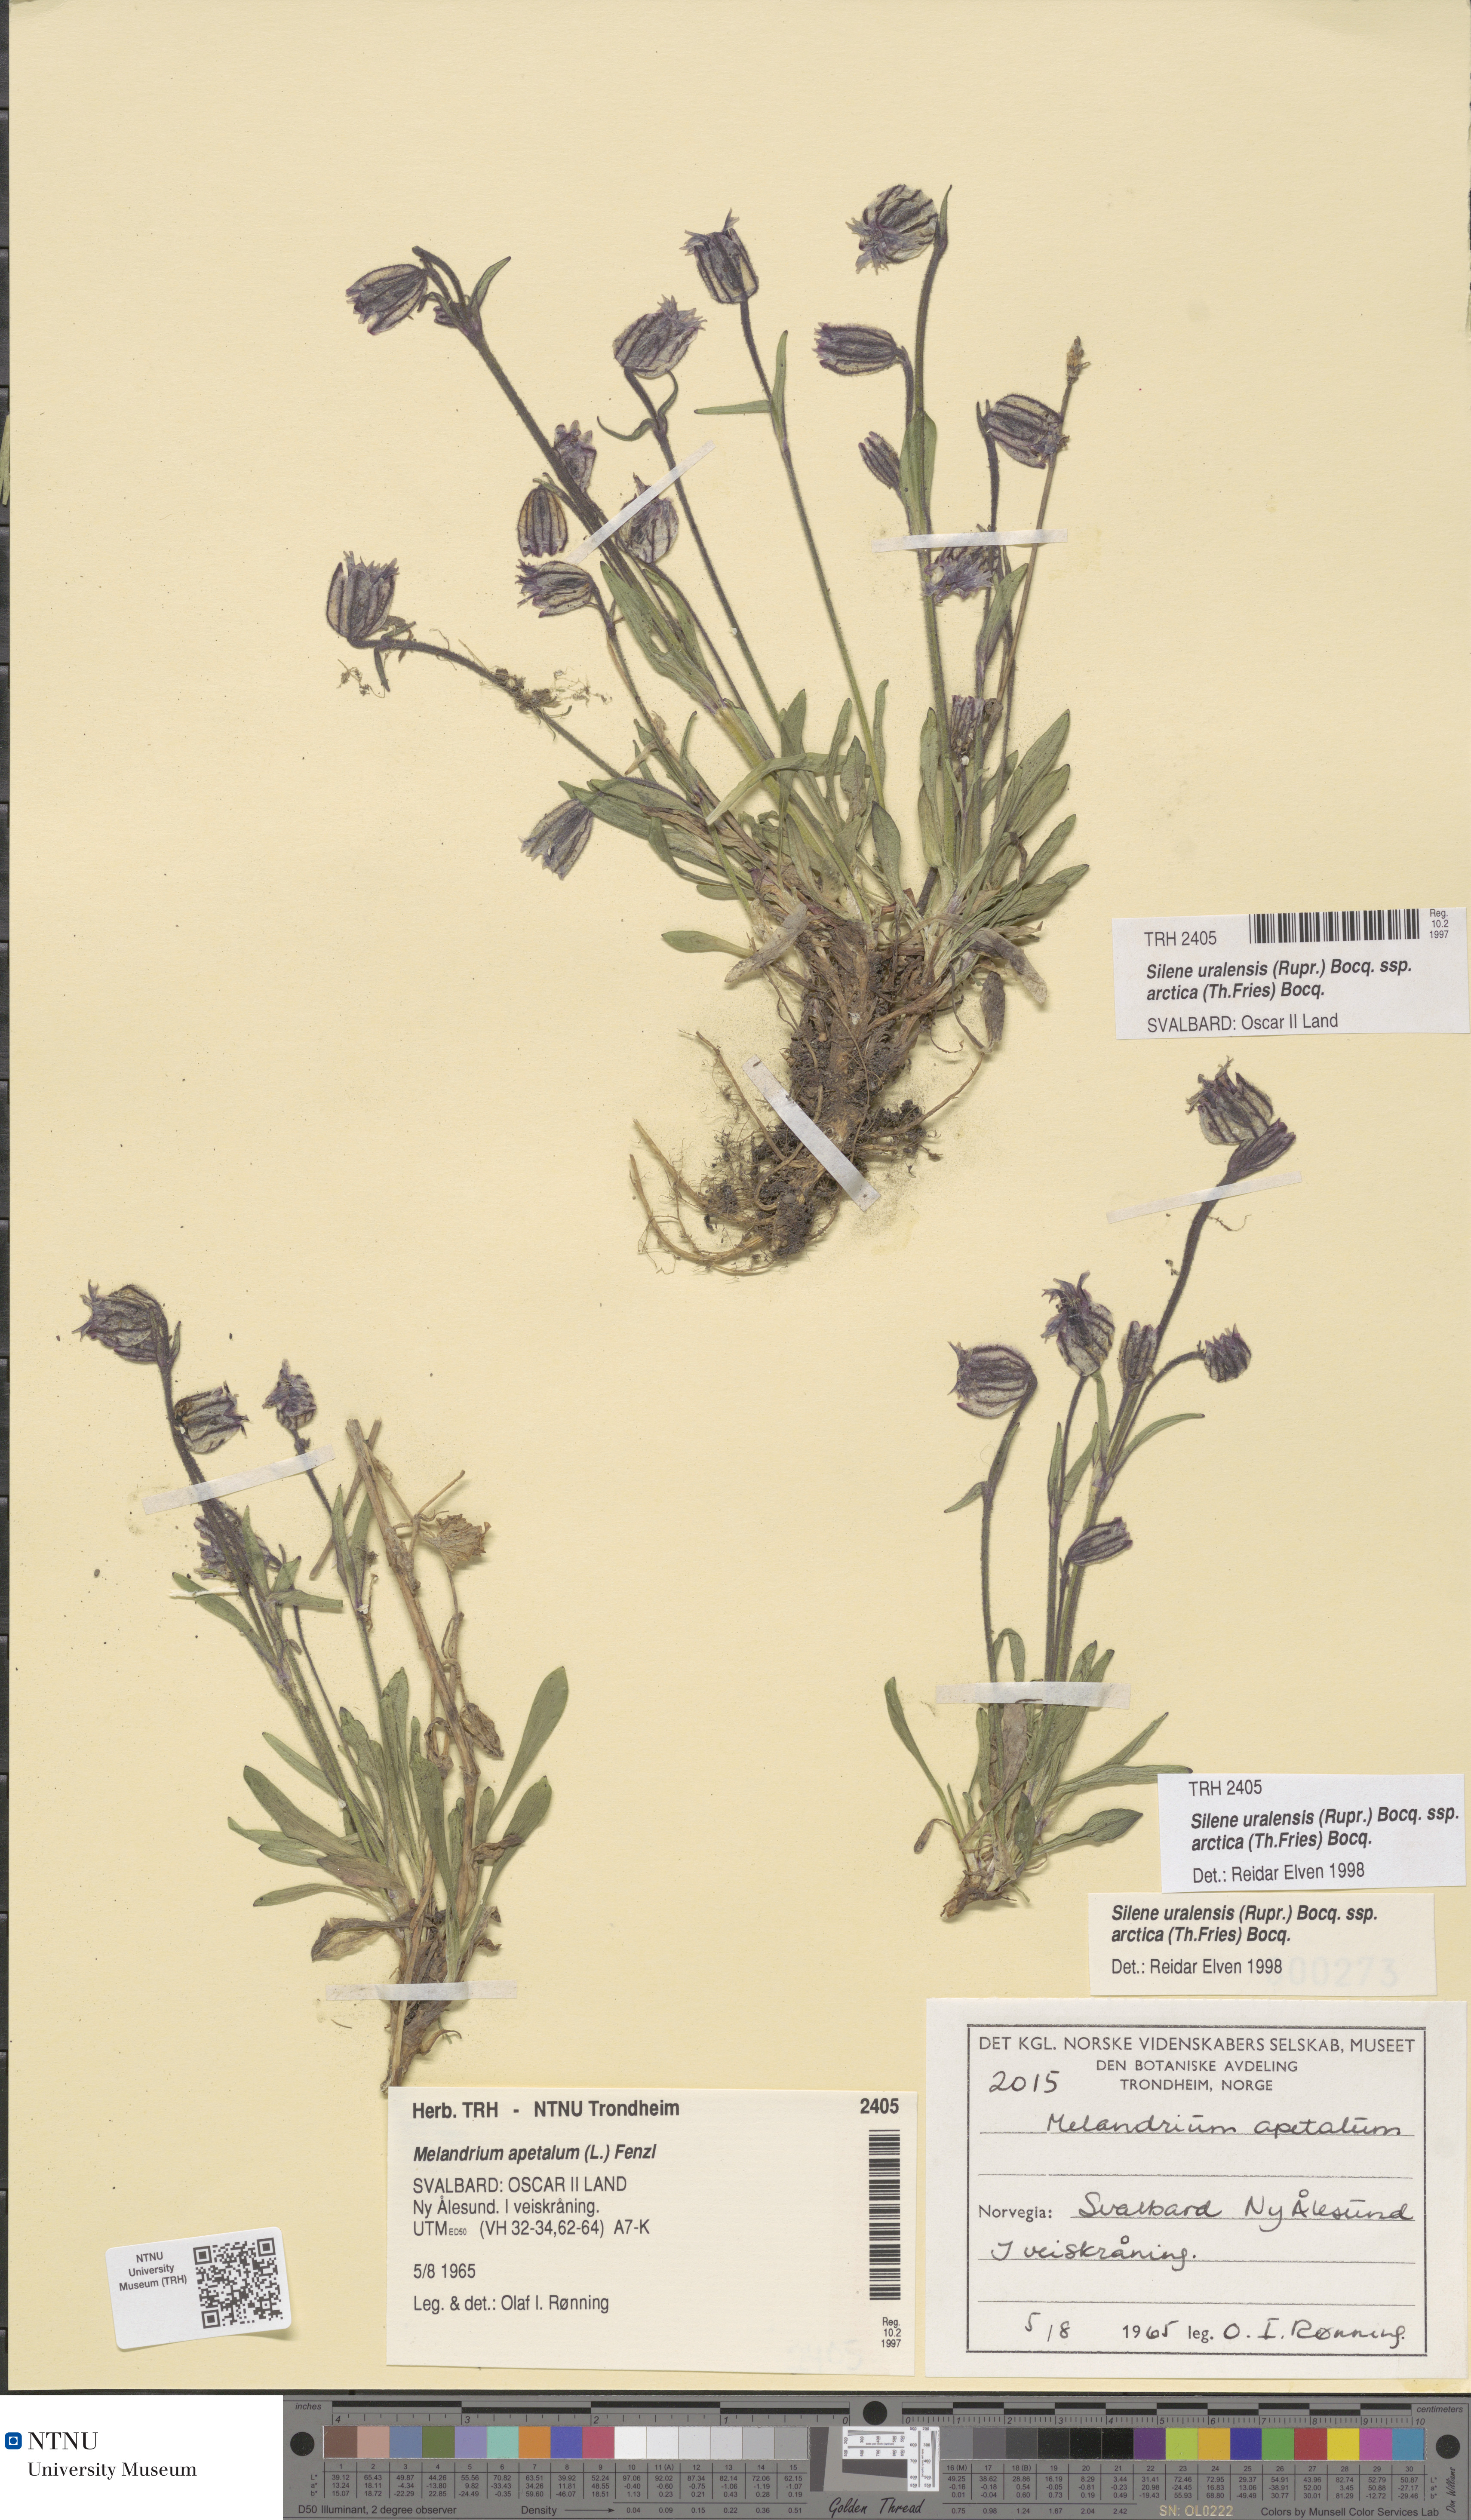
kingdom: Plantae
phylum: Tracheophyta
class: Magnoliopsida
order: Caryophyllales
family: Caryophyllaceae
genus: Silene
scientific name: Silene uralensis
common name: Nodding campion
